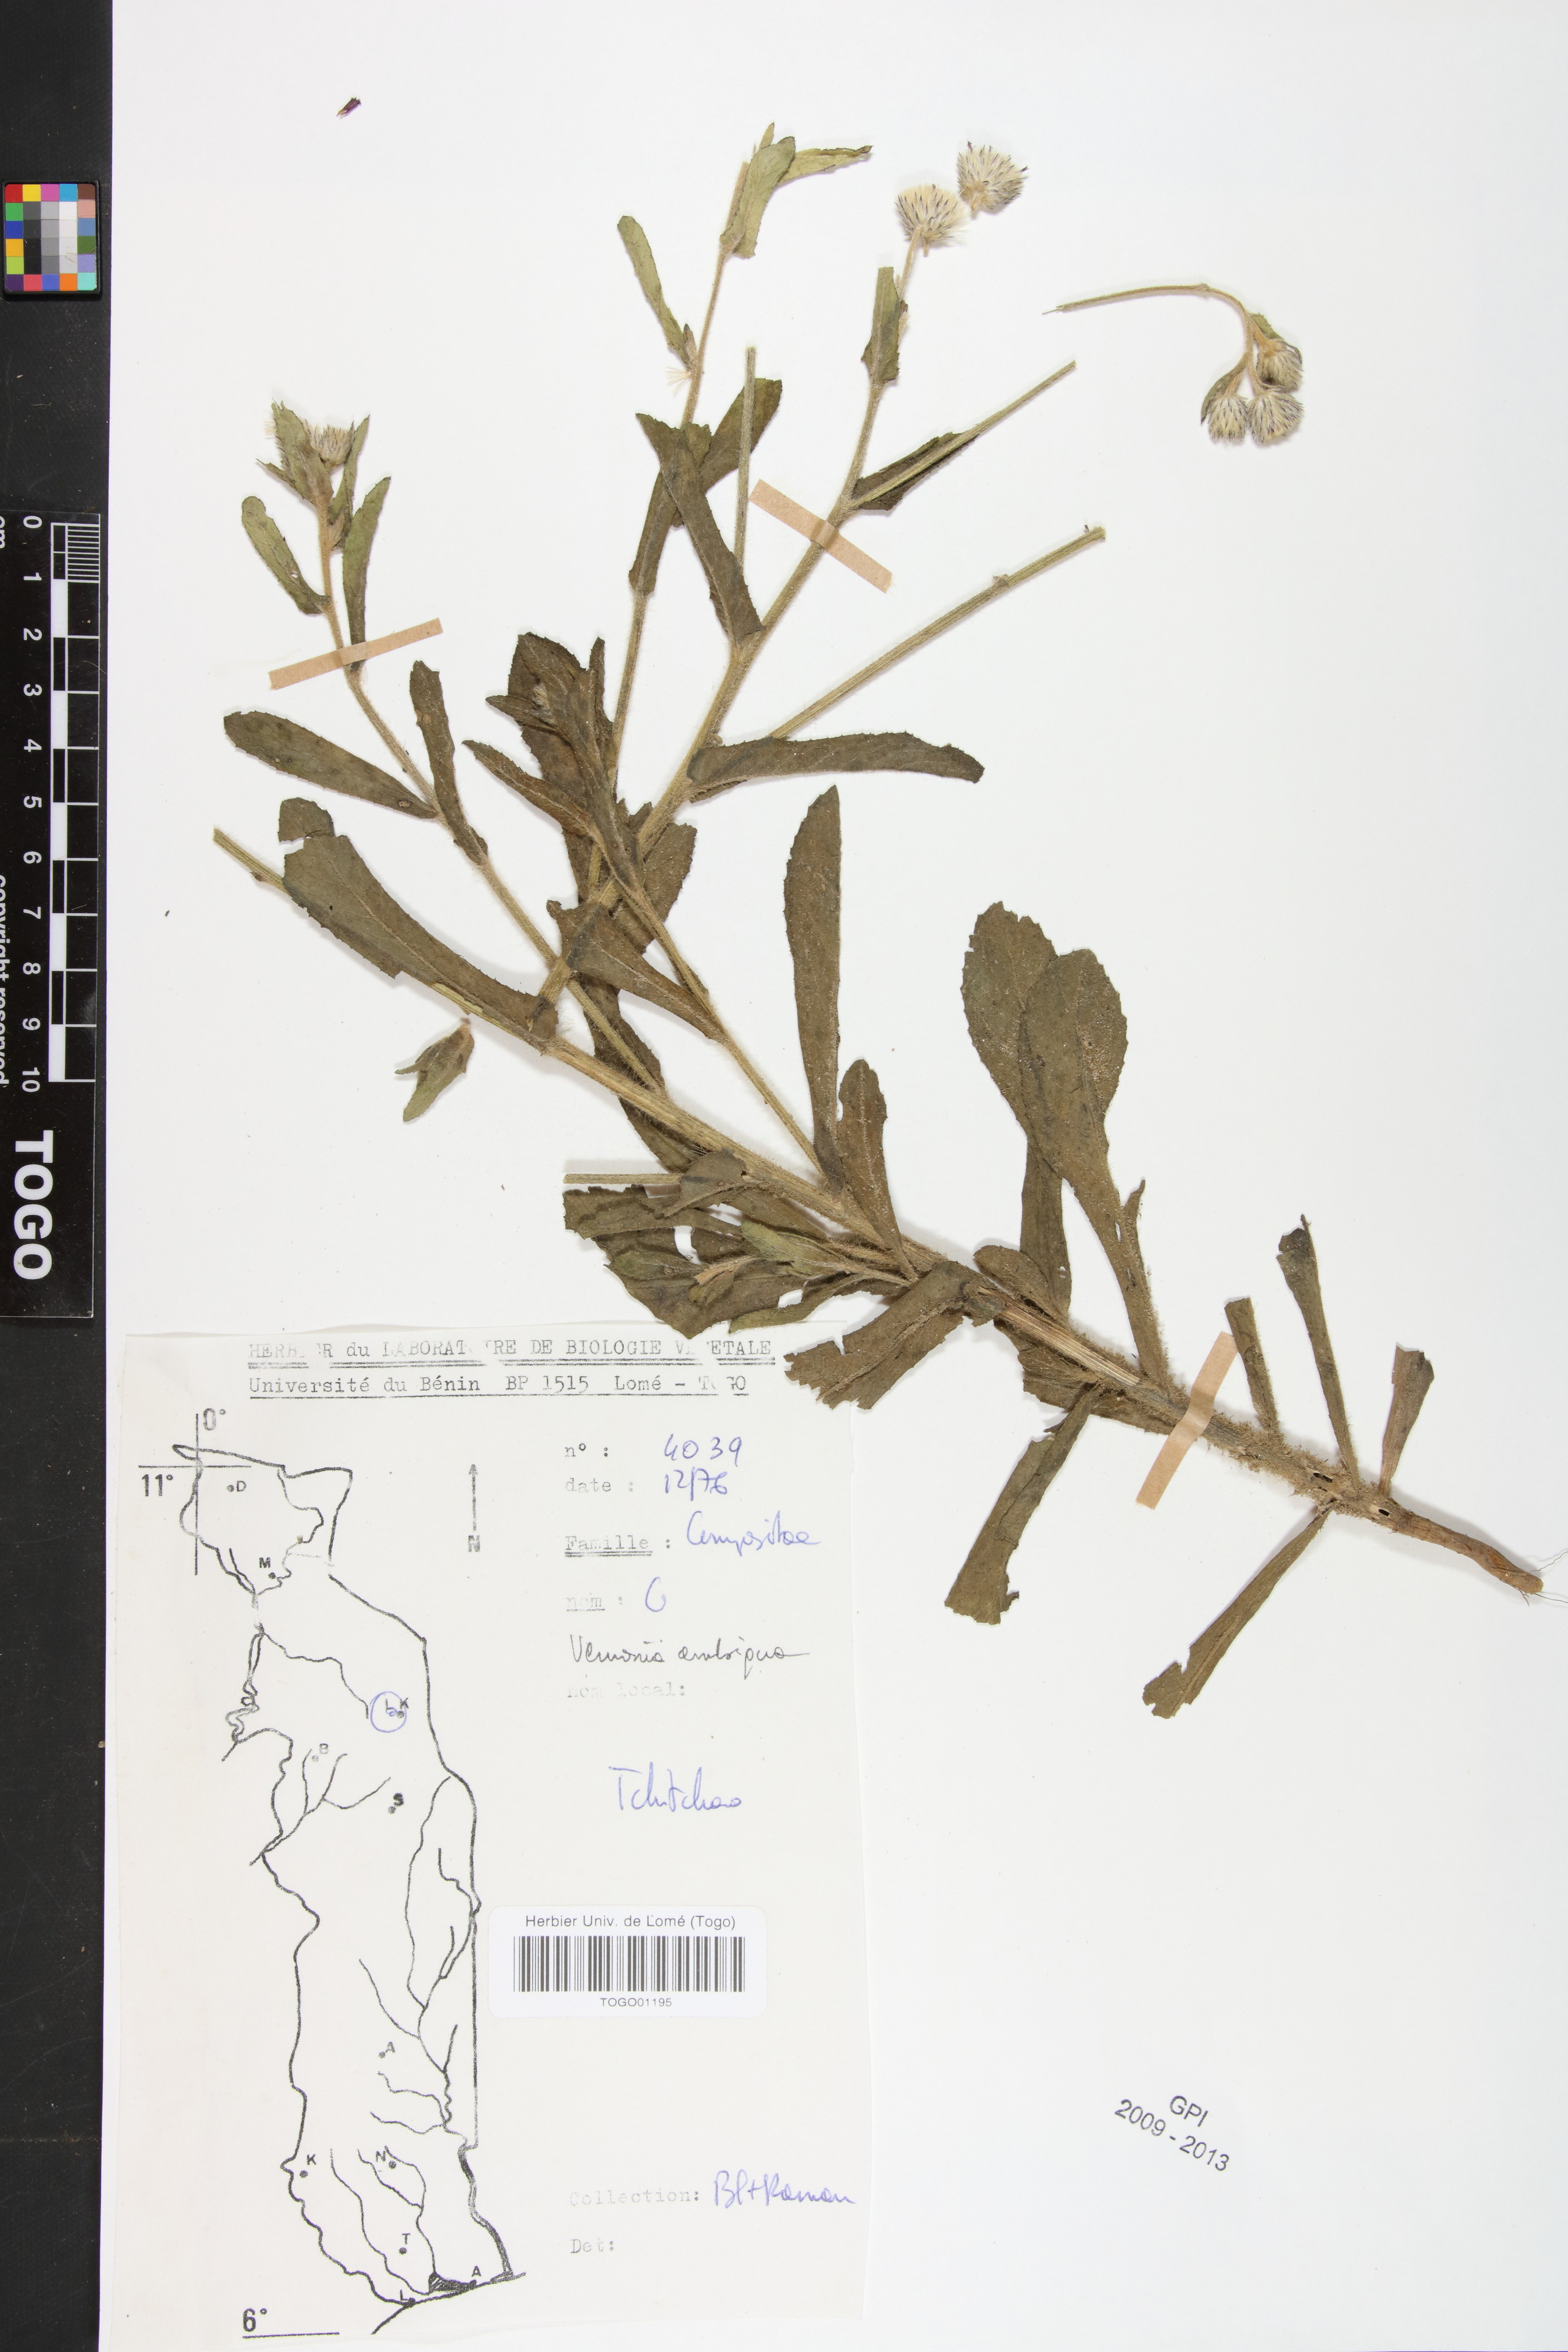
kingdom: Plantae
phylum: Tracheophyta
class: Magnoliopsida
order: Asterales
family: Asteraceae
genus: Vernoniastrum
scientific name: Vernoniastrum ambiguum
